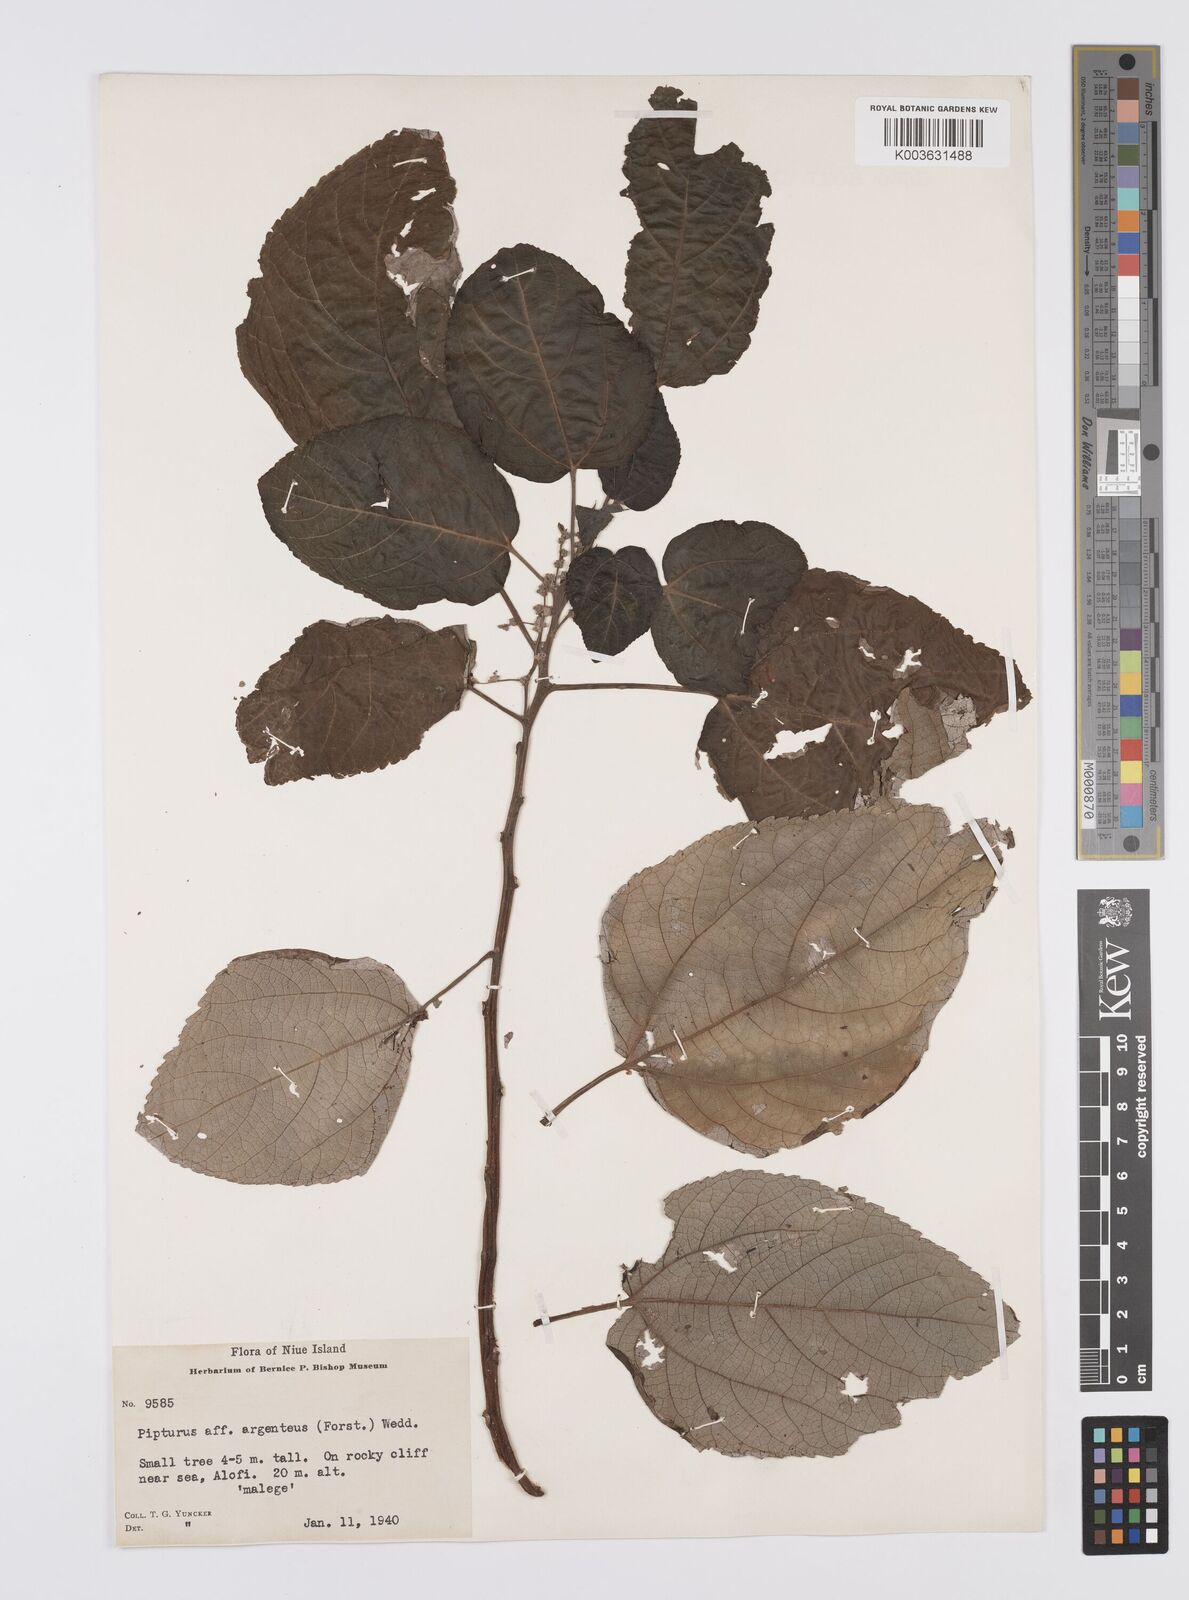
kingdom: Plantae
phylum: Tracheophyta
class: Magnoliopsida
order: Rosales
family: Urticaceae
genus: Pipturus
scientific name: Pipturus argenteus
